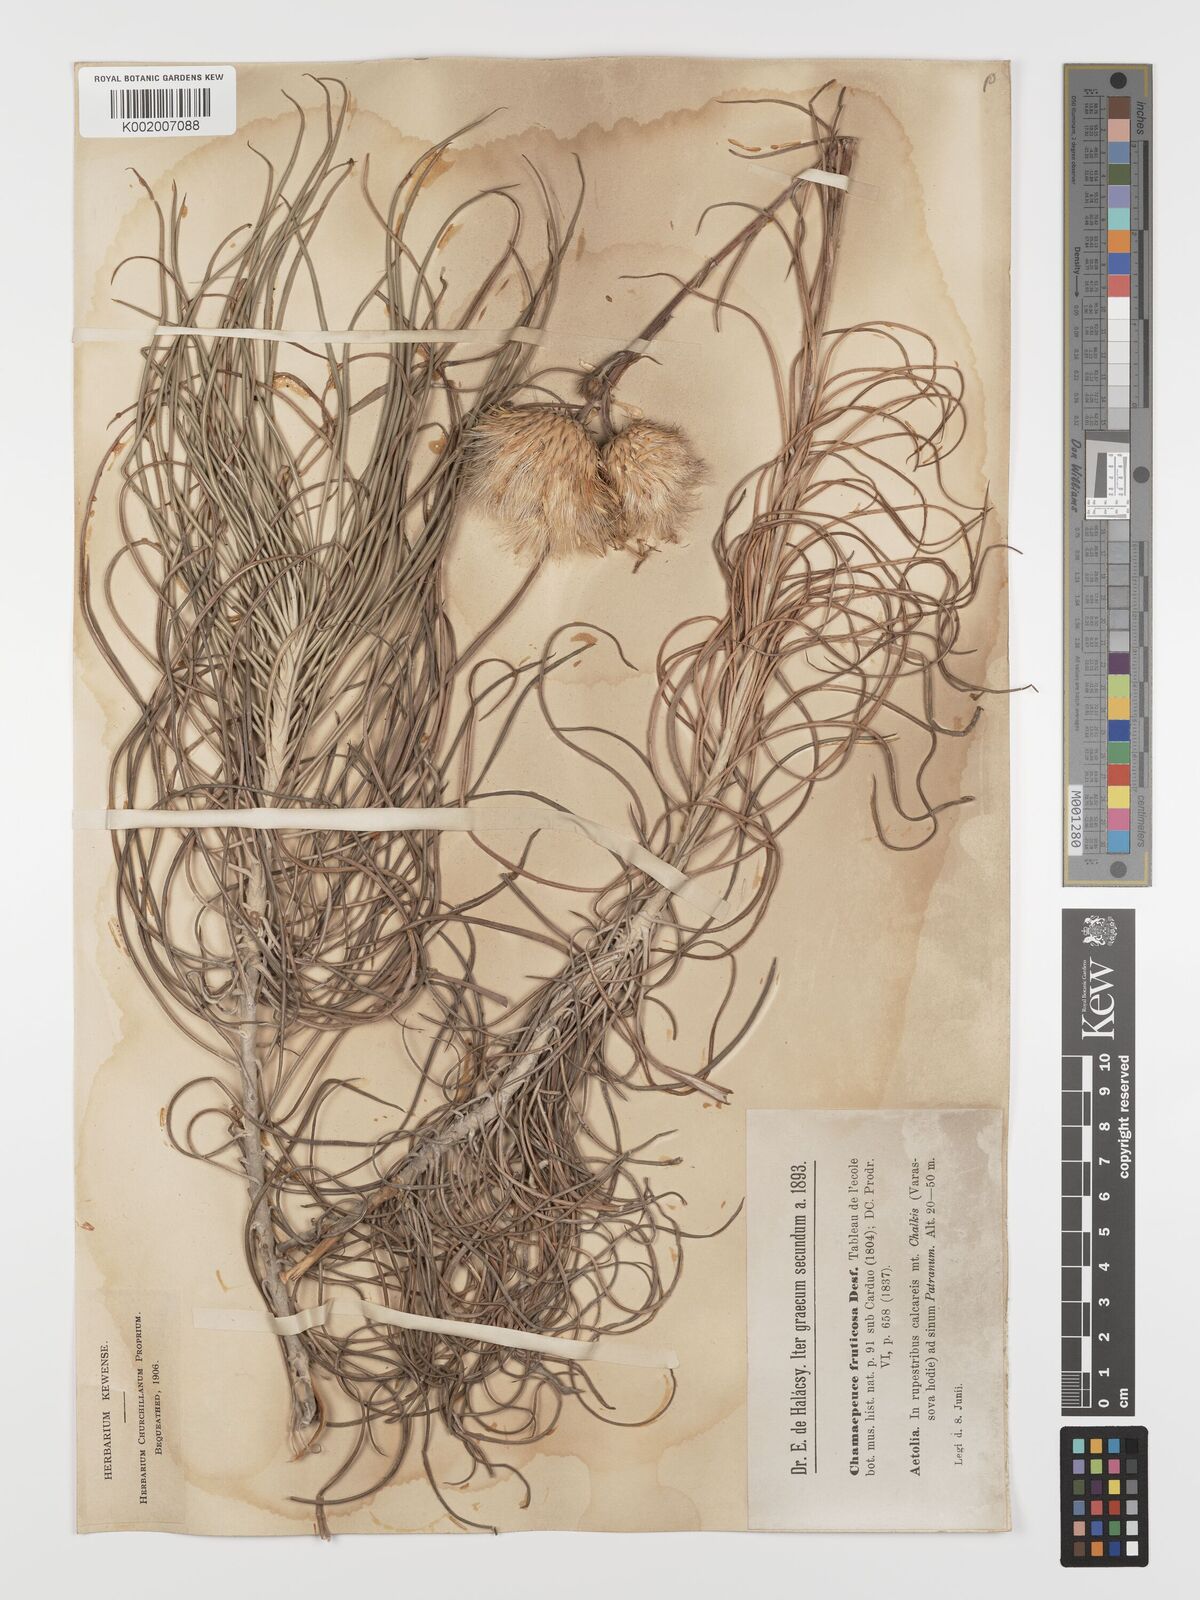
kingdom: Plantae
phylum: Tracheophyta
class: Magnoliopsida
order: Asterales
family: Asteraceae
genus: Ptilostemon
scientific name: Ptilostemon gnaphaloides
